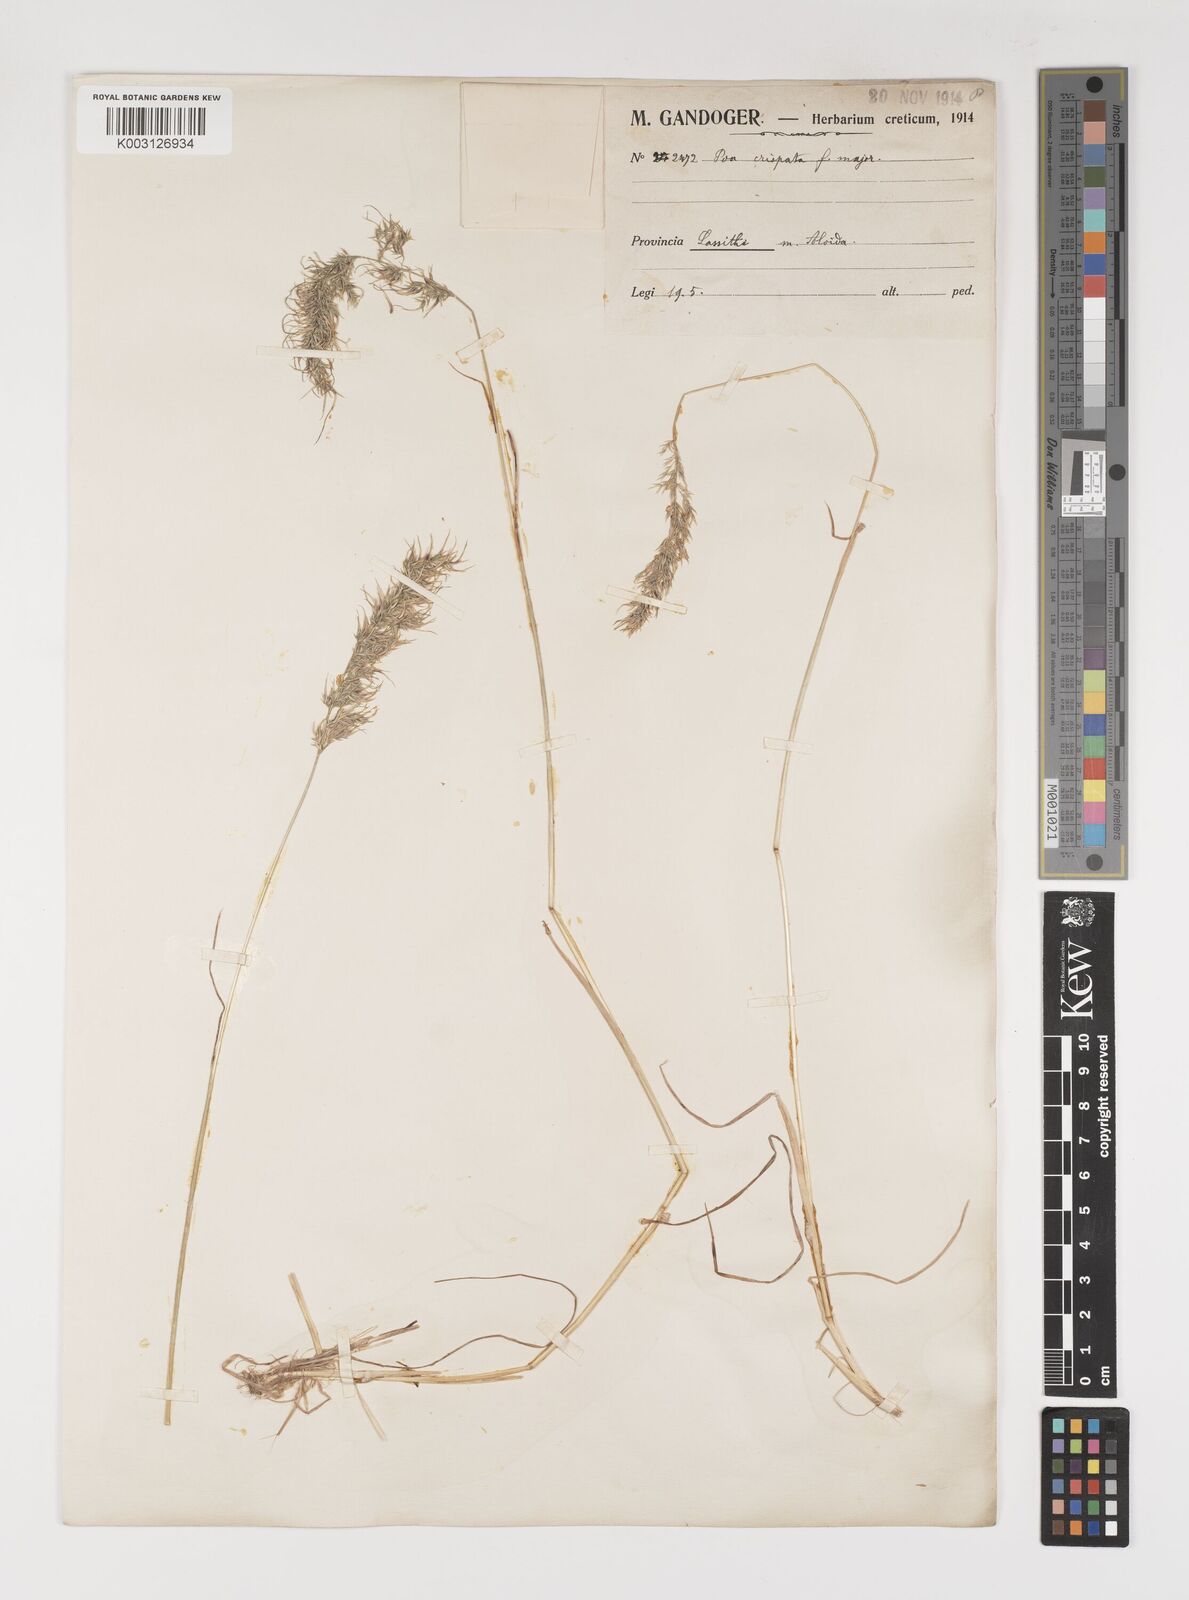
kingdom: Plantae
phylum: Tracheophyta
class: Liliopsida
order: Poales
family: Poaceae
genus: Poa
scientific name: Poa bulbosa
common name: Bulbous bluegrass
